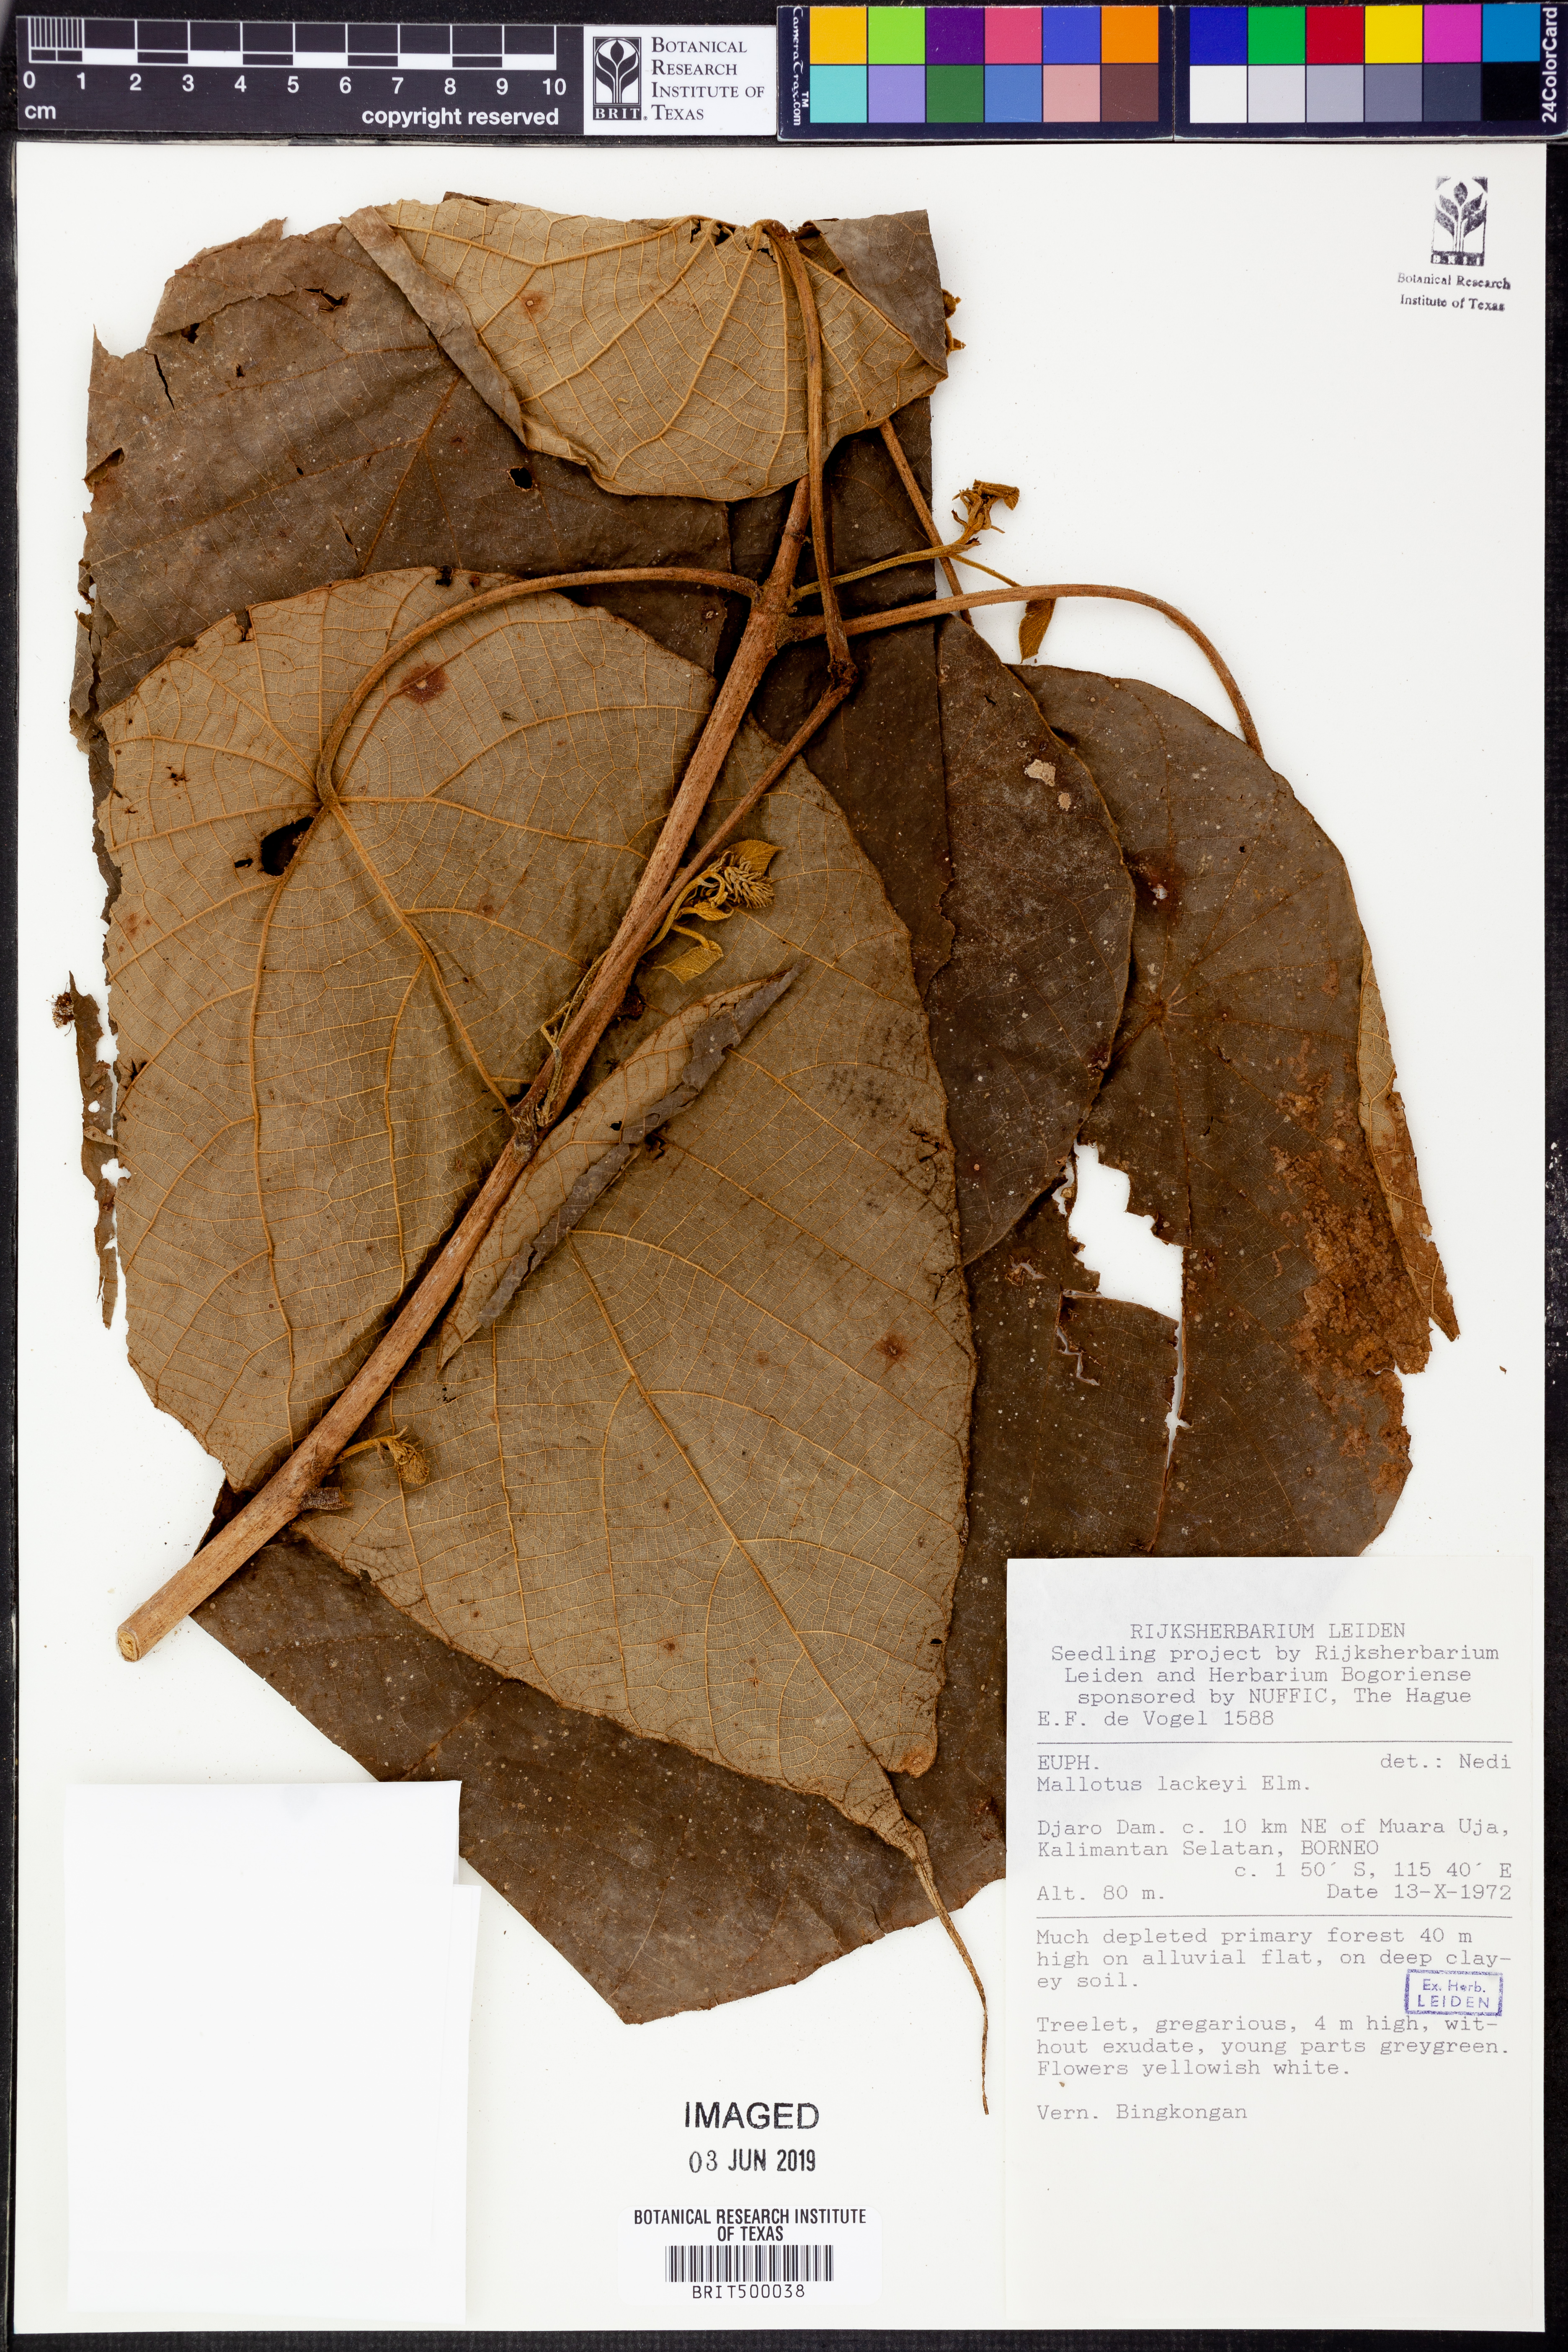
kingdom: Plantae
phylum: Tracheophyta
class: Magnoliopsida
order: Malpighiales
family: Euphorbiaceae
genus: Mallotus
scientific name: Mallotus lackeyi
